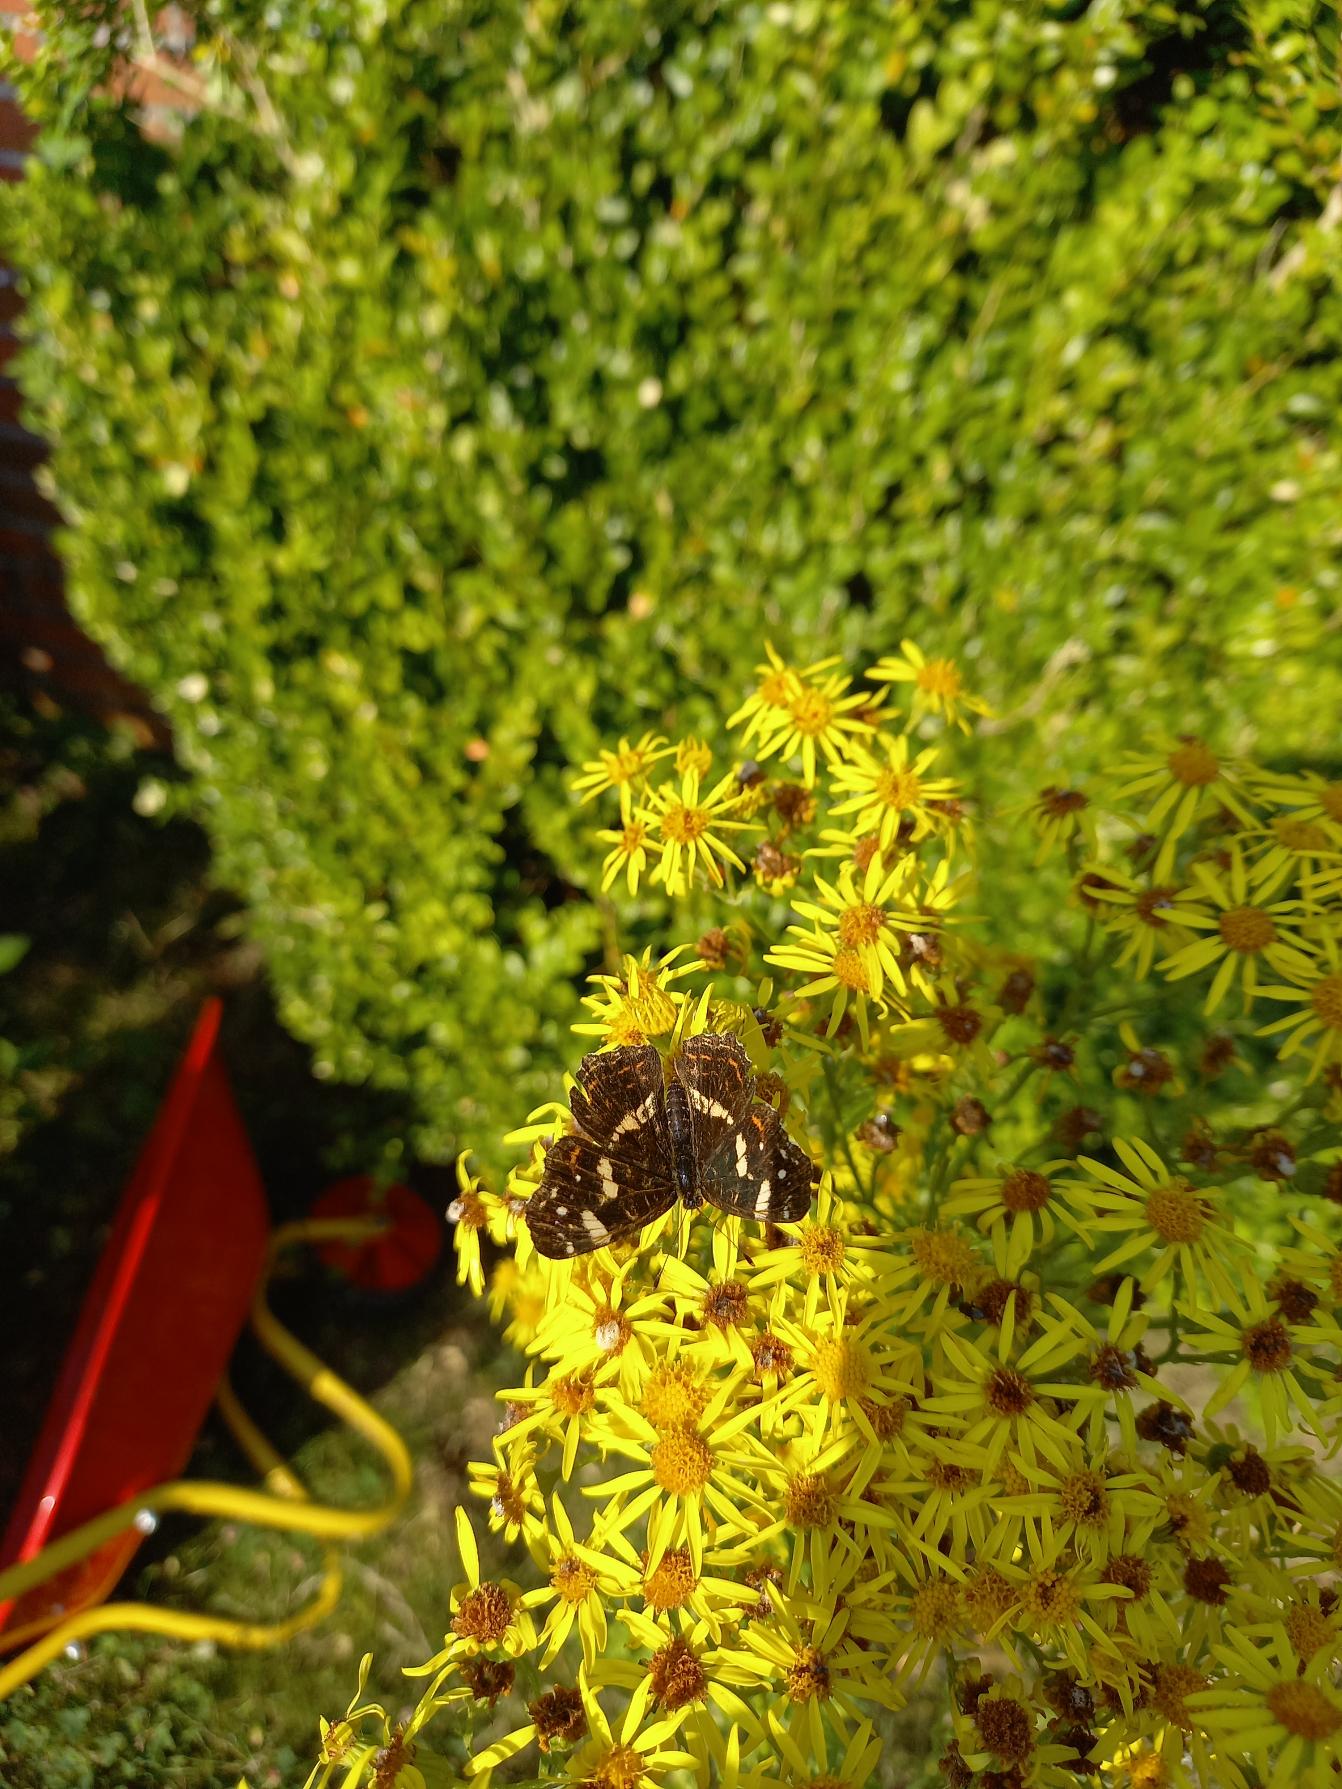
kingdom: Animalia
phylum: Arthropoda
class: Insecta
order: Lepidoptera
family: Nymphalidae
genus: Araschnia
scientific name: Araschnia levana
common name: Nældesommerfugl
